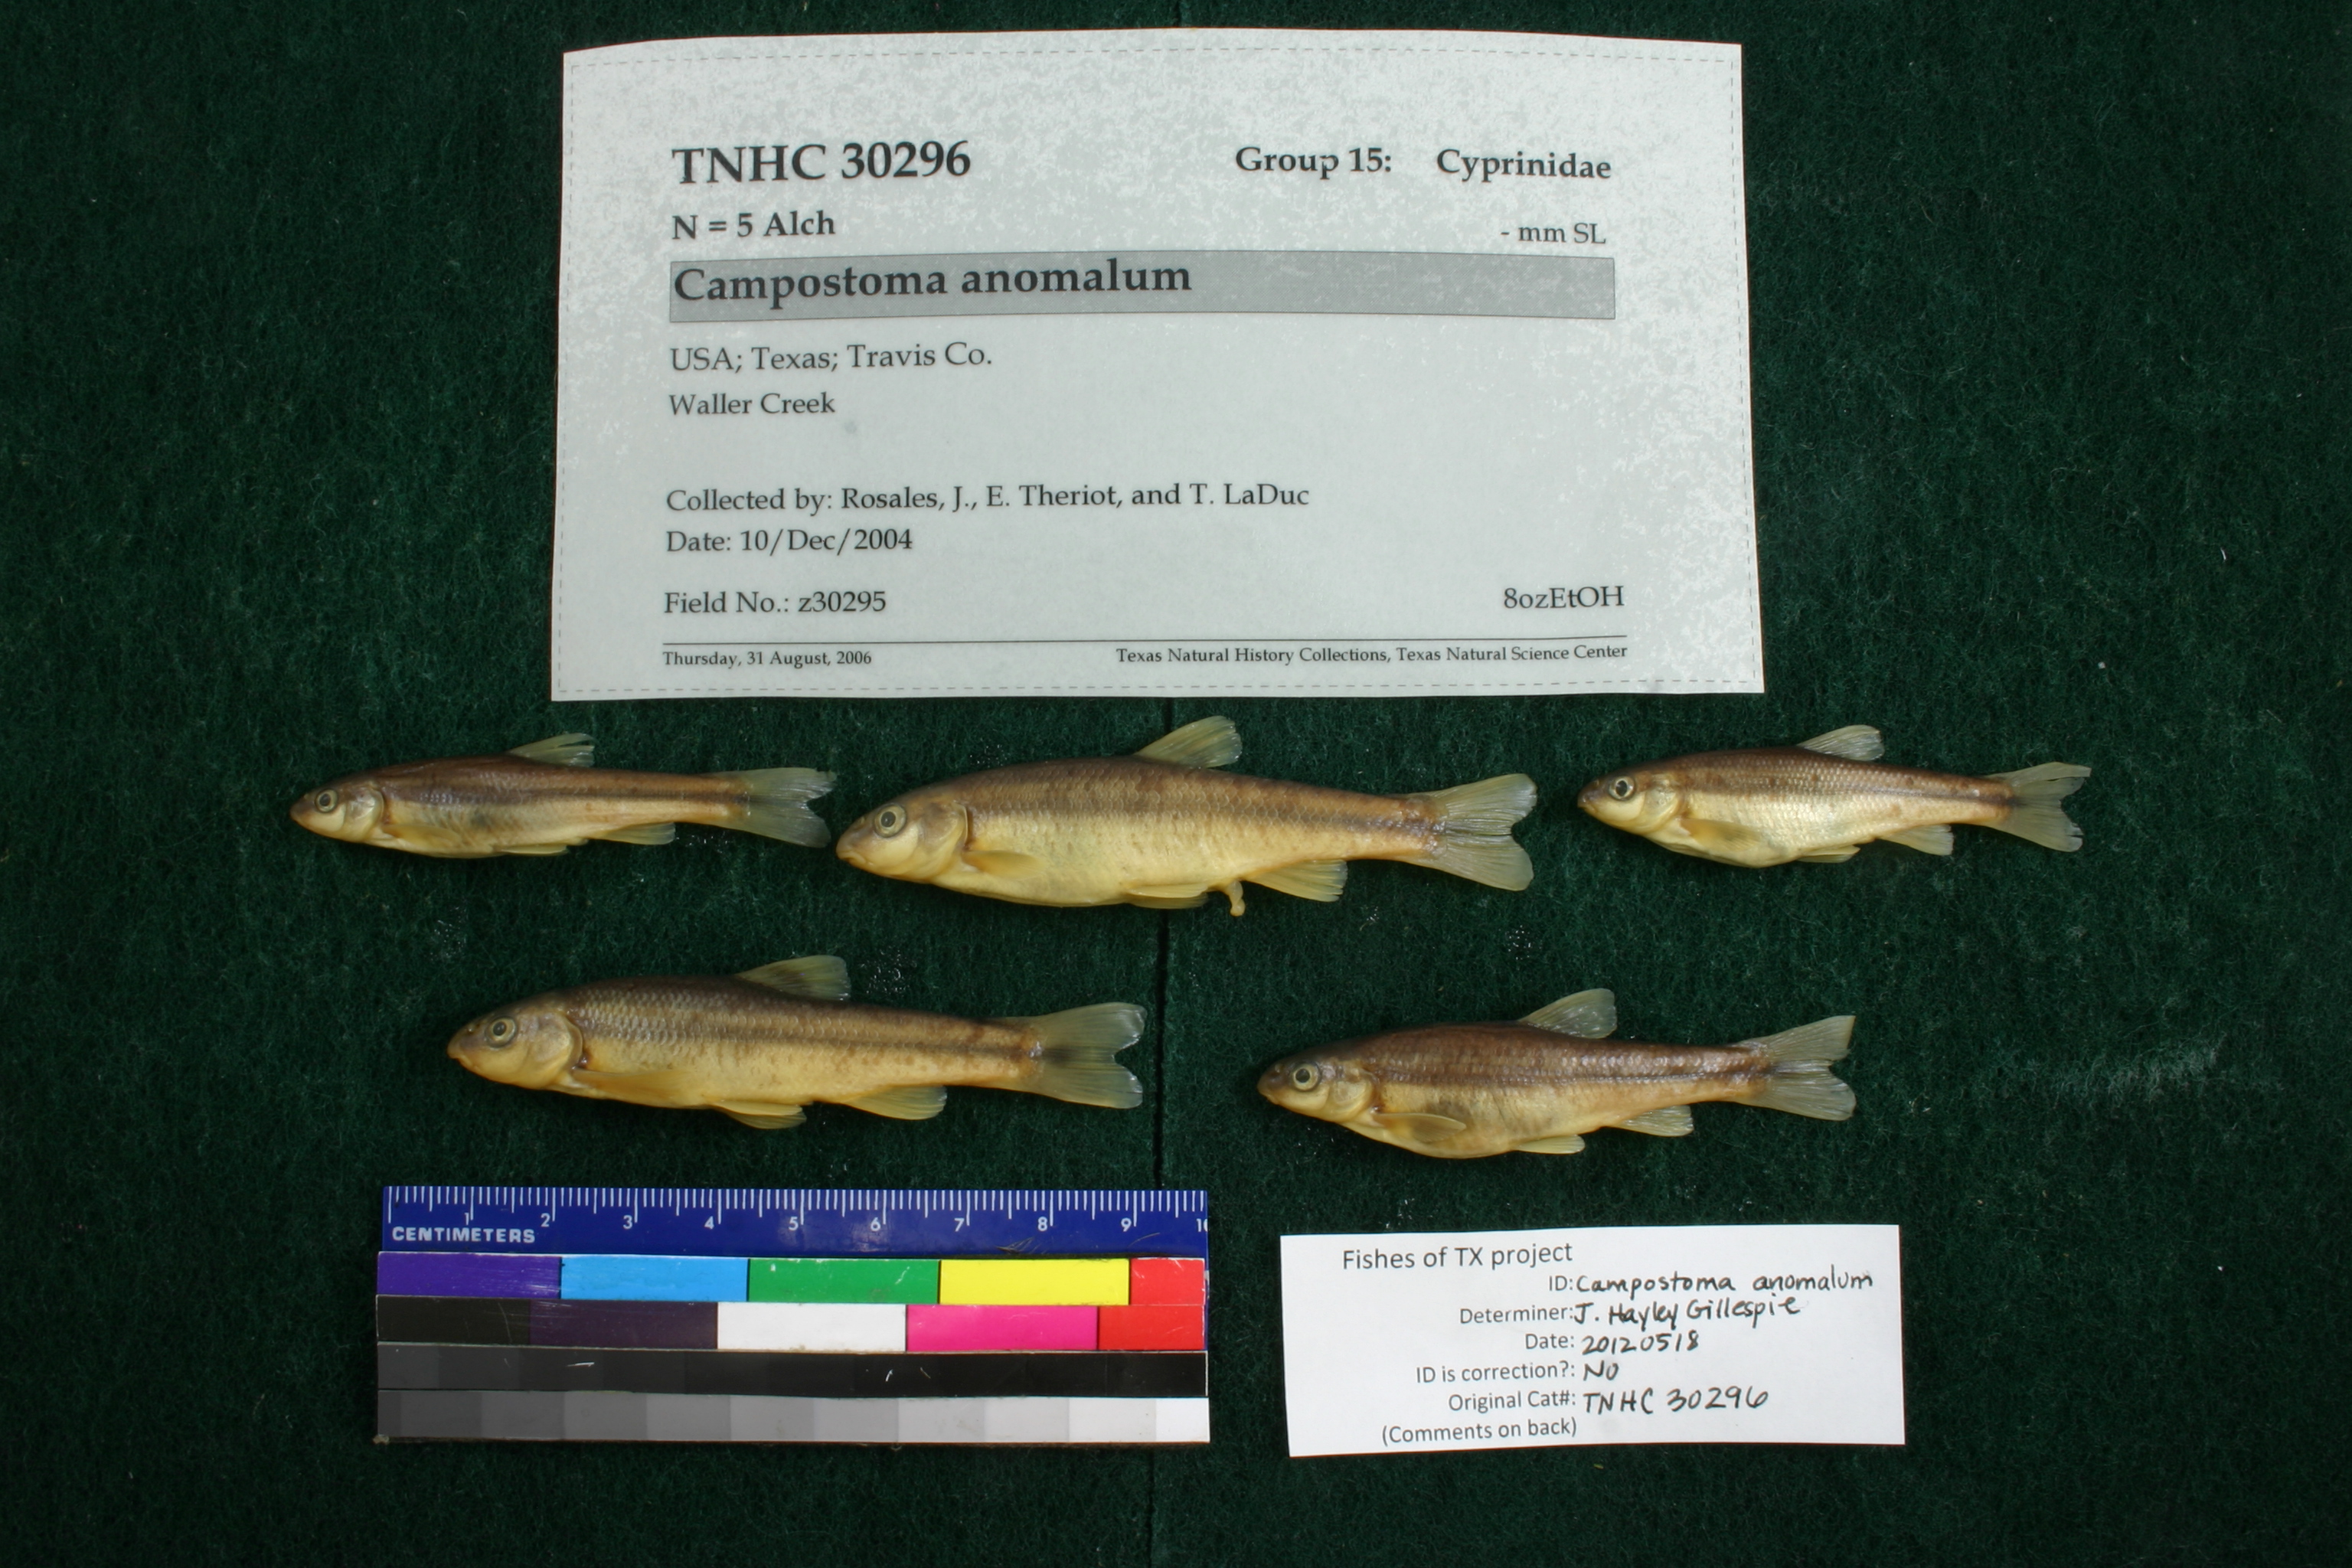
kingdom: Animalia
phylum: Chordata
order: Cypriniformes
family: Cyprinidae
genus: Campostoma
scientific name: Campostoma anomalum
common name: Central stoneroller
